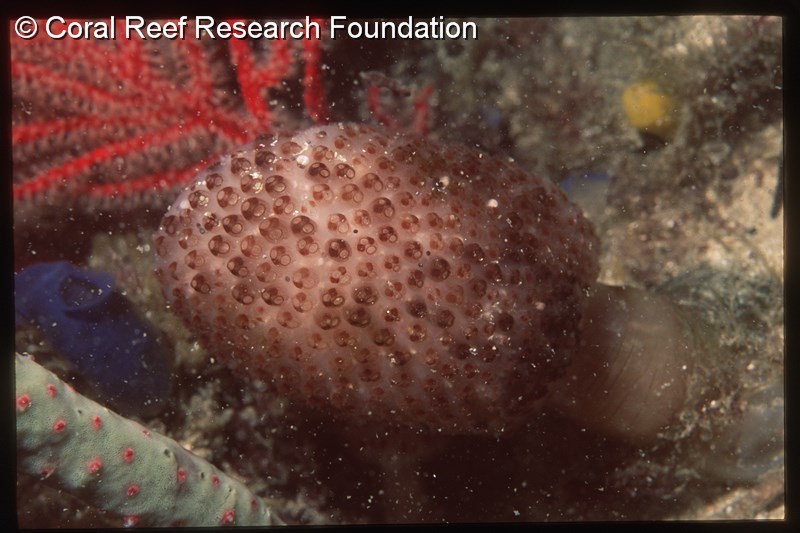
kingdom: Animalia
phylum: Chordata
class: Ascidiacea
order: Aplousobranchia
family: Polycitoridae
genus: Eudistoma
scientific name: Eudistoma
